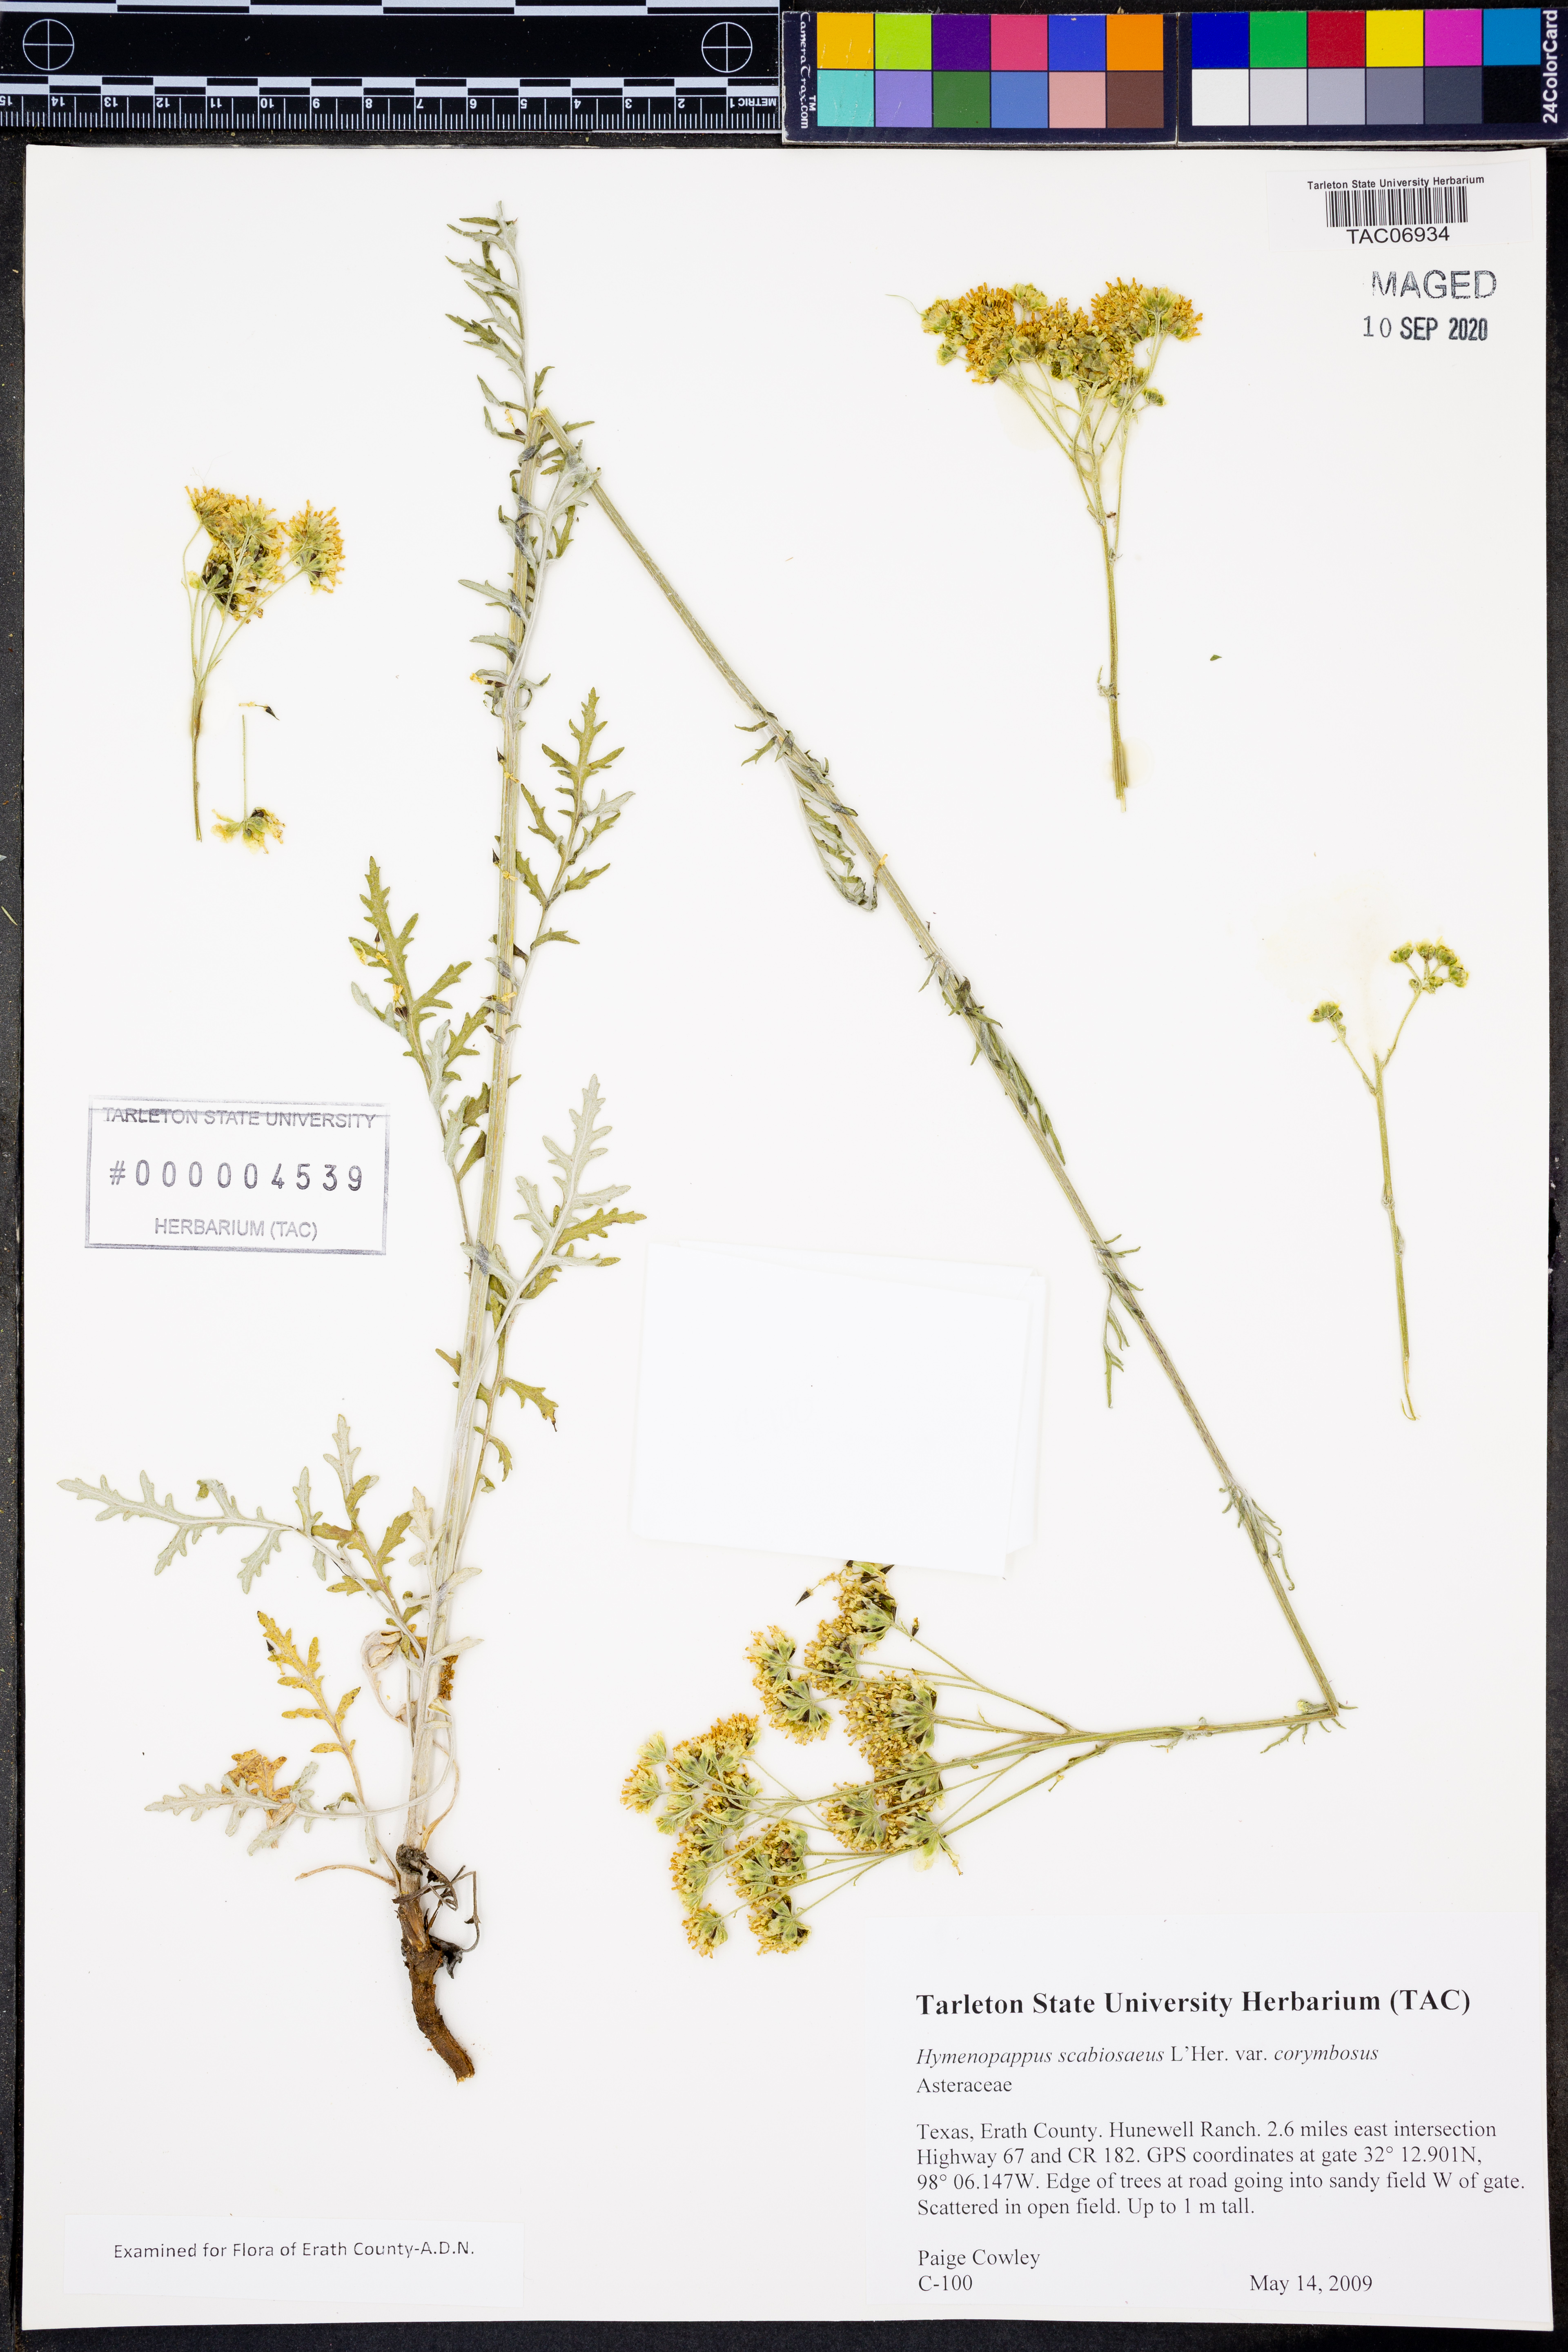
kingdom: Plantae
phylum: Tracheophyta
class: Magnoliopsida
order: Asterales
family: Asteraceae
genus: Hymenopappus
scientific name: Hymenopappus scabiosaeus
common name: Carolina woollywhite
